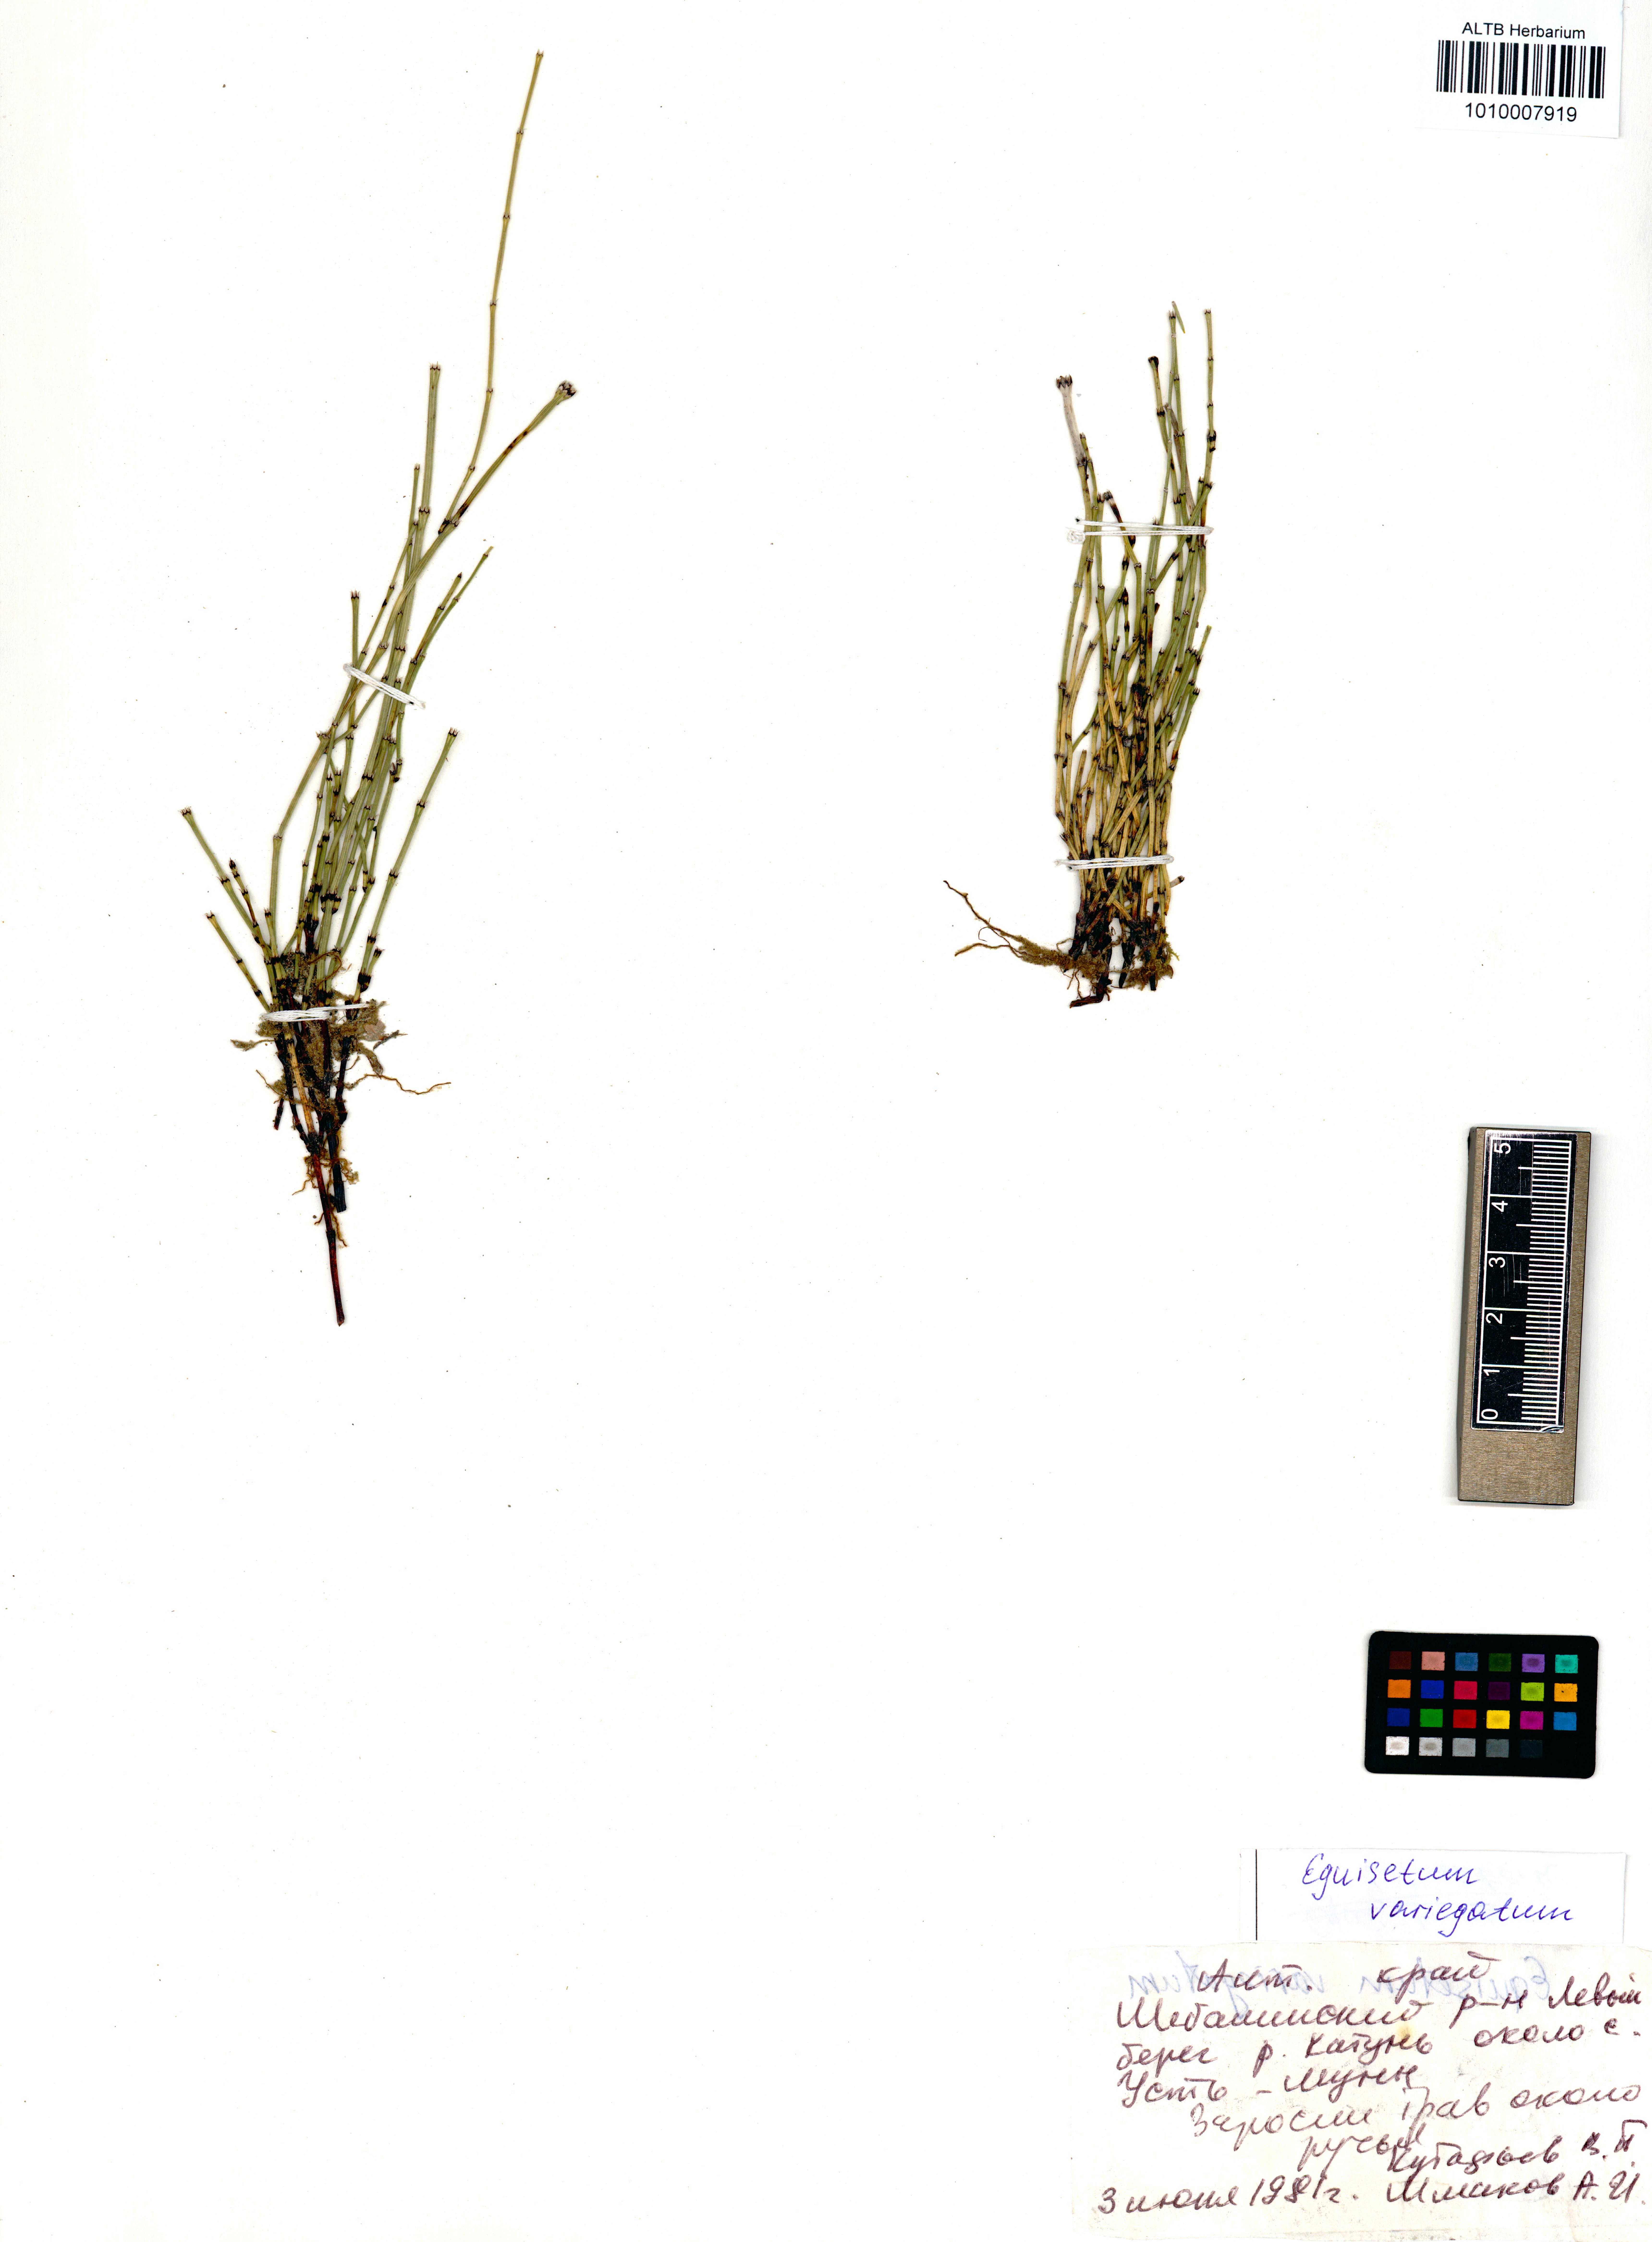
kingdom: Plantae
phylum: Tracheophyta
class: Polypodiopsida
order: Equisetales
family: Equisetaceae
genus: Equisetum
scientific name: Equisetum variegatum
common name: Variegated horsetail
